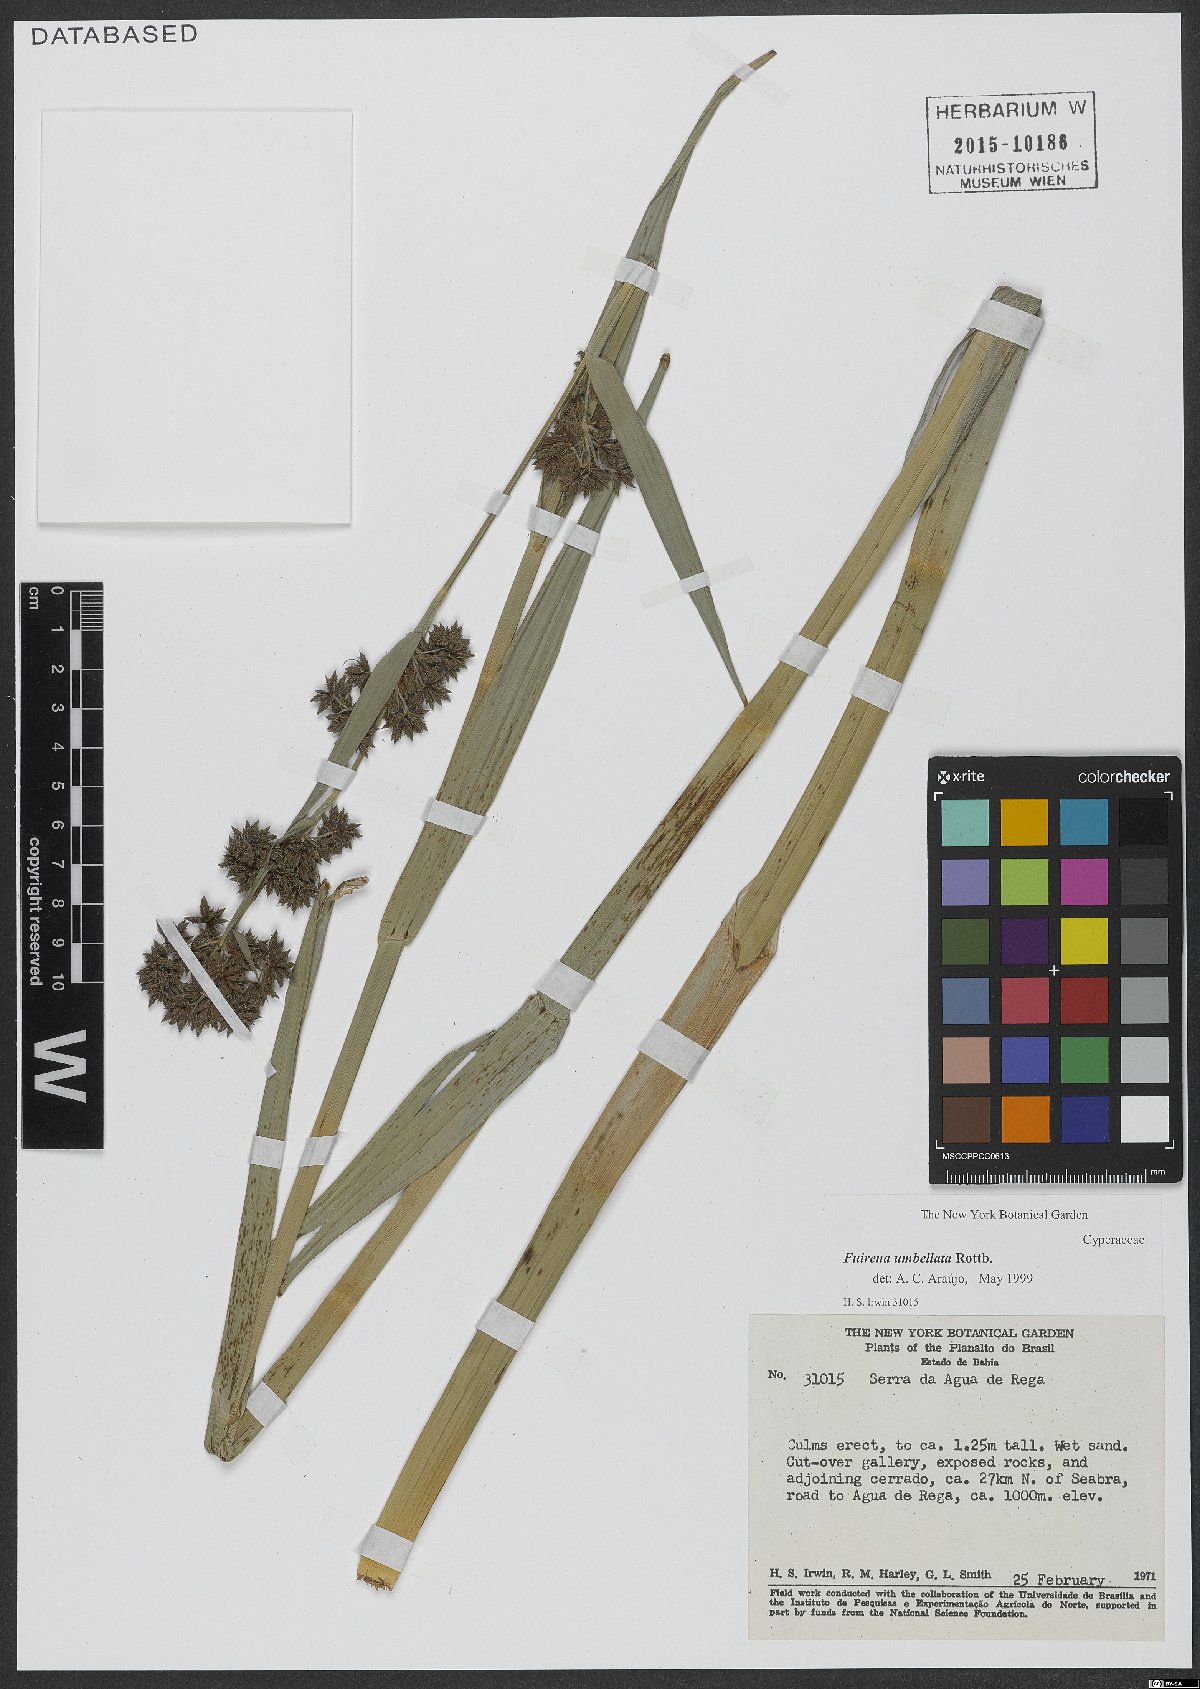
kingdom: Plantae
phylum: Tracheophyta
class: Liliopsida
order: Poales
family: Cyperaceae
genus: Fuirena
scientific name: Fuirena umbellata
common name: Yefen
